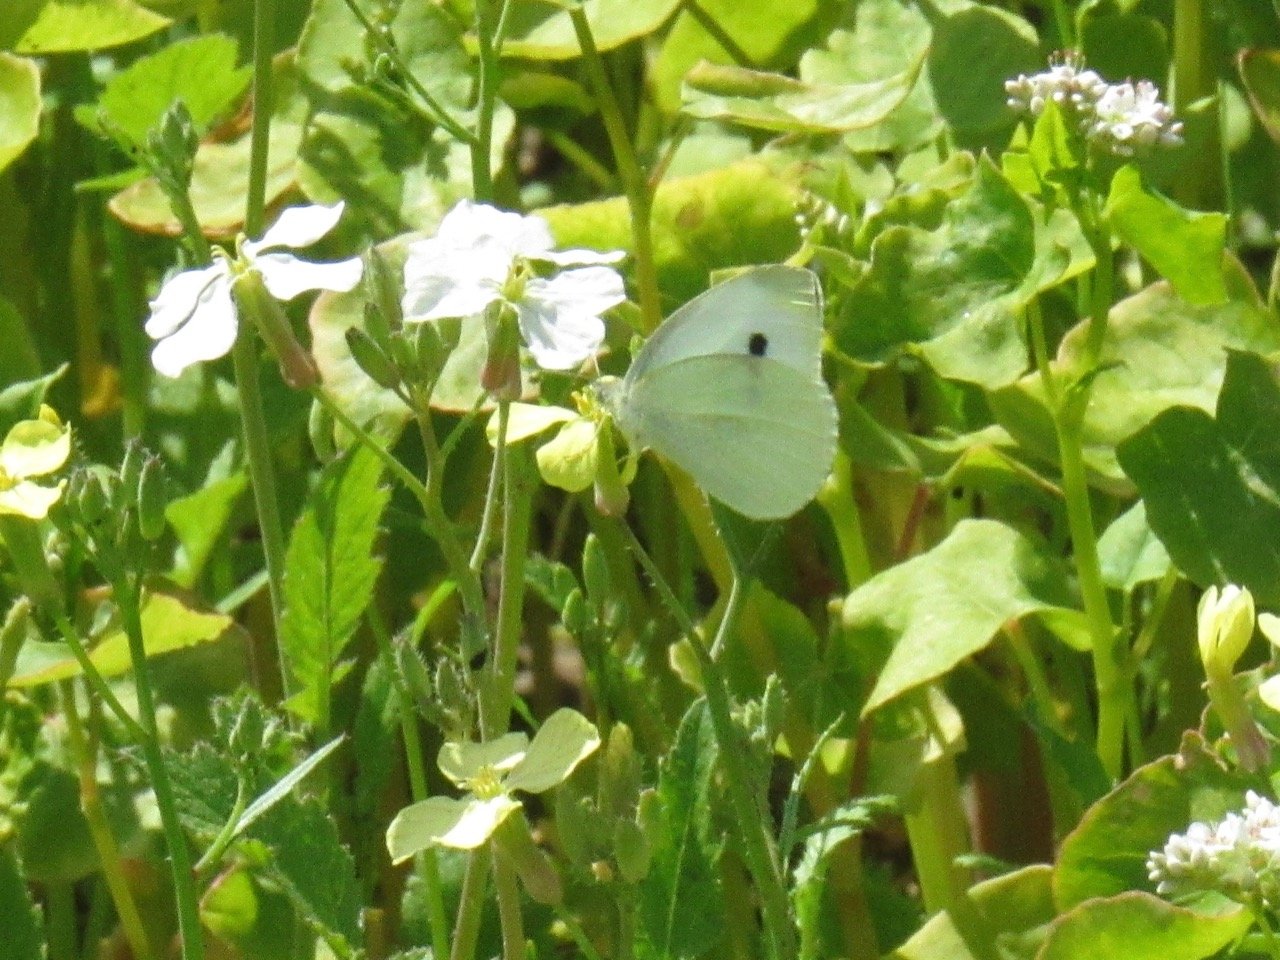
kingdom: Animalia
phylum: Arthropoda
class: Insecta
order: Lepidoptera
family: Pieridae
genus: Pieris
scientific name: Pieris rapae
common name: Cabbage White
